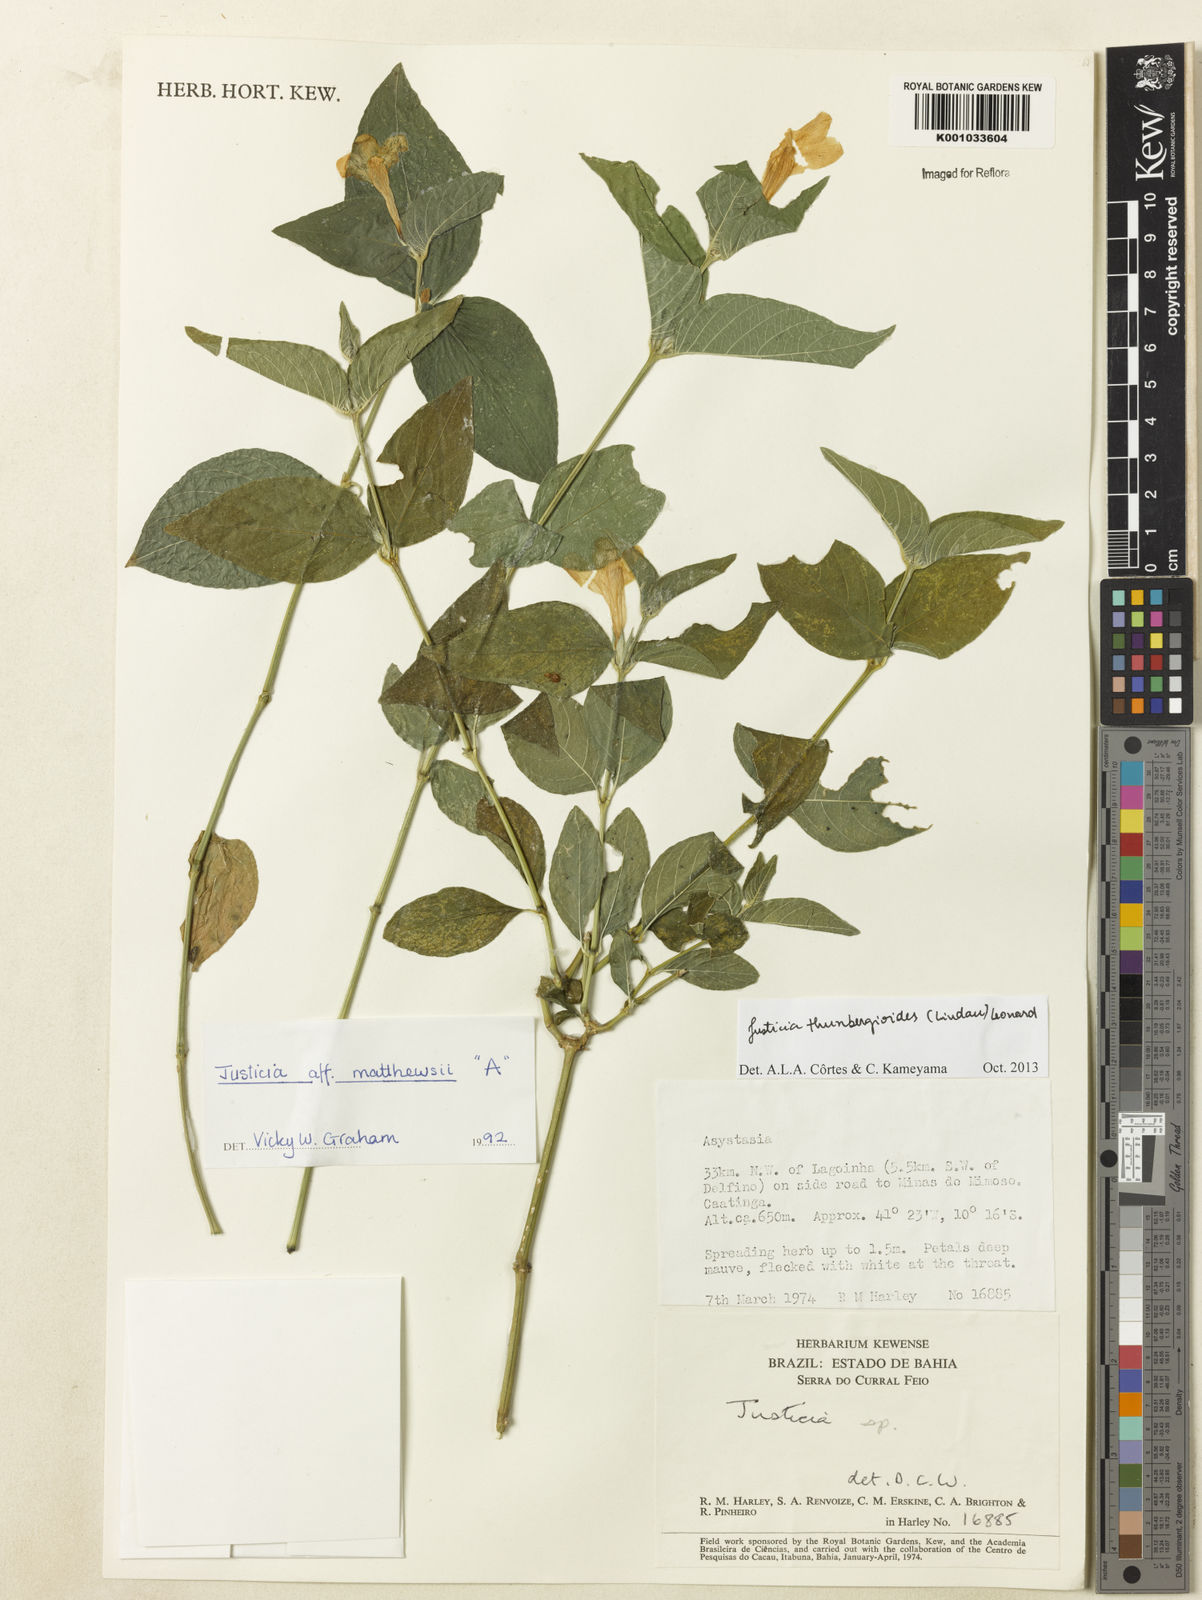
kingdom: Plantae
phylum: Tracheophyta
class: Magnoliopsida
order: Lamiales
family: Acanthaceae
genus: Justicia
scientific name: Justicia thunbergioides
